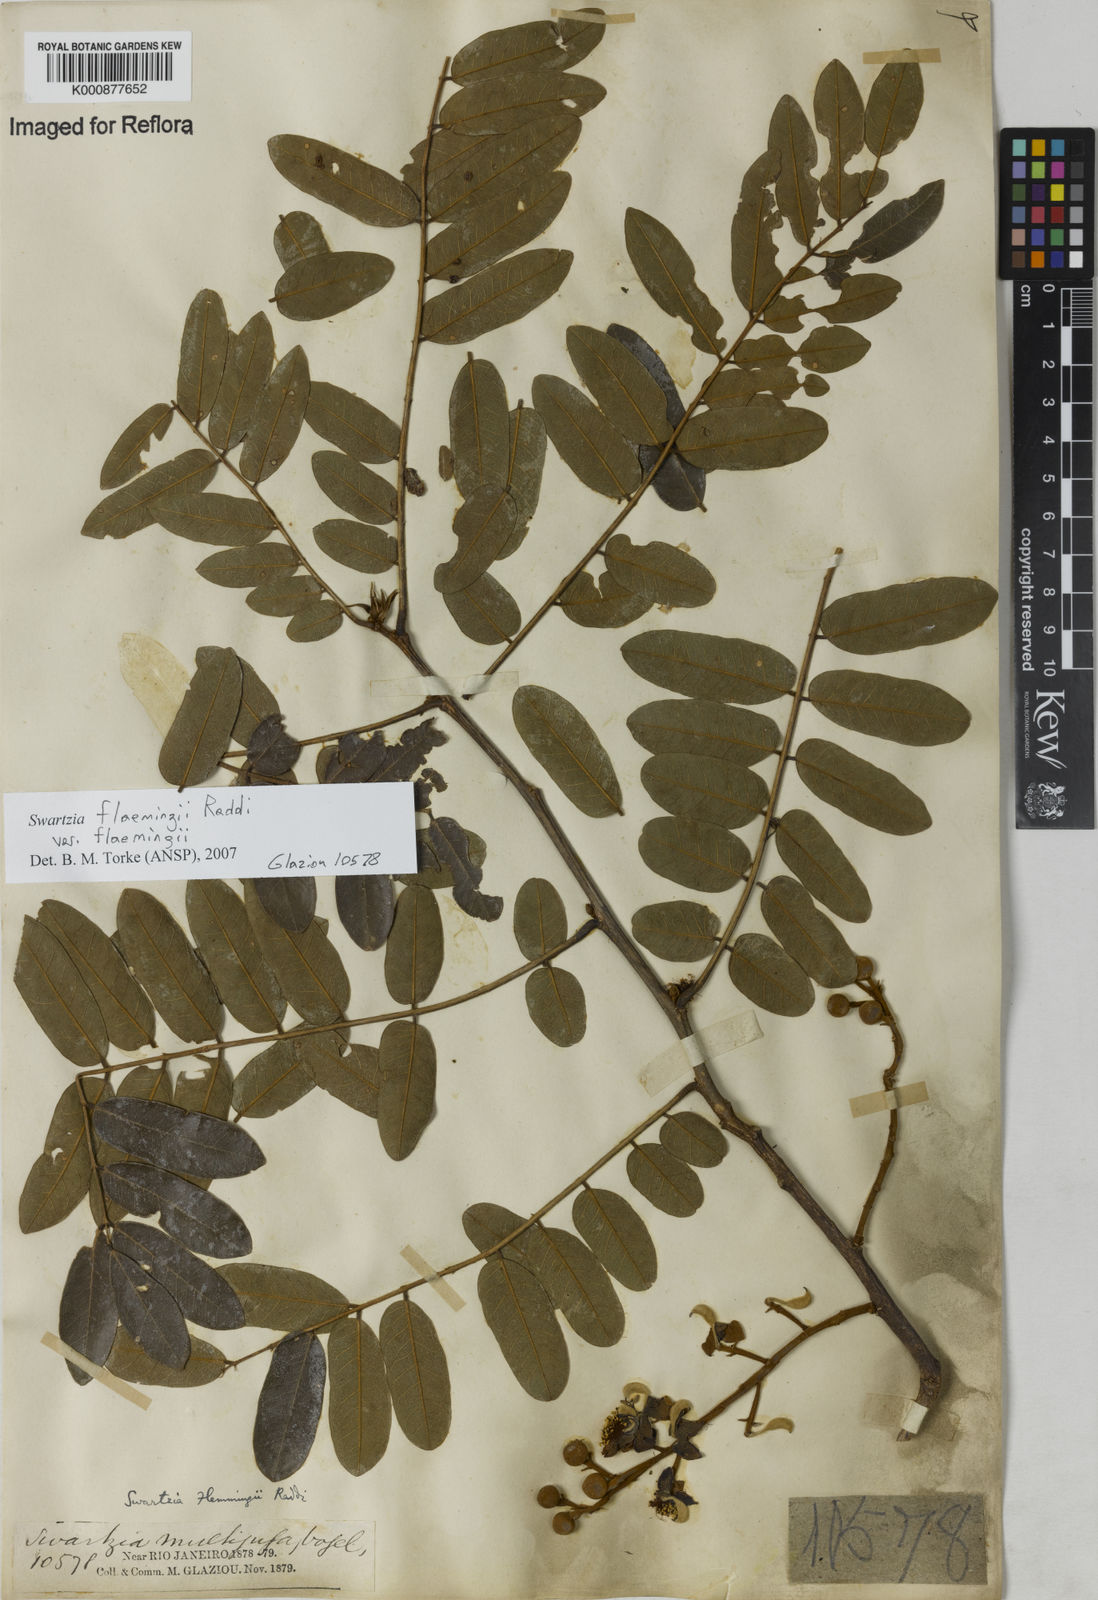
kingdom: Plantae
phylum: Tracheophyta
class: Magnoliopsida
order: Fabales
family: Fabaceae
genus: Swartzia
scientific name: Swartzia flaemingii
